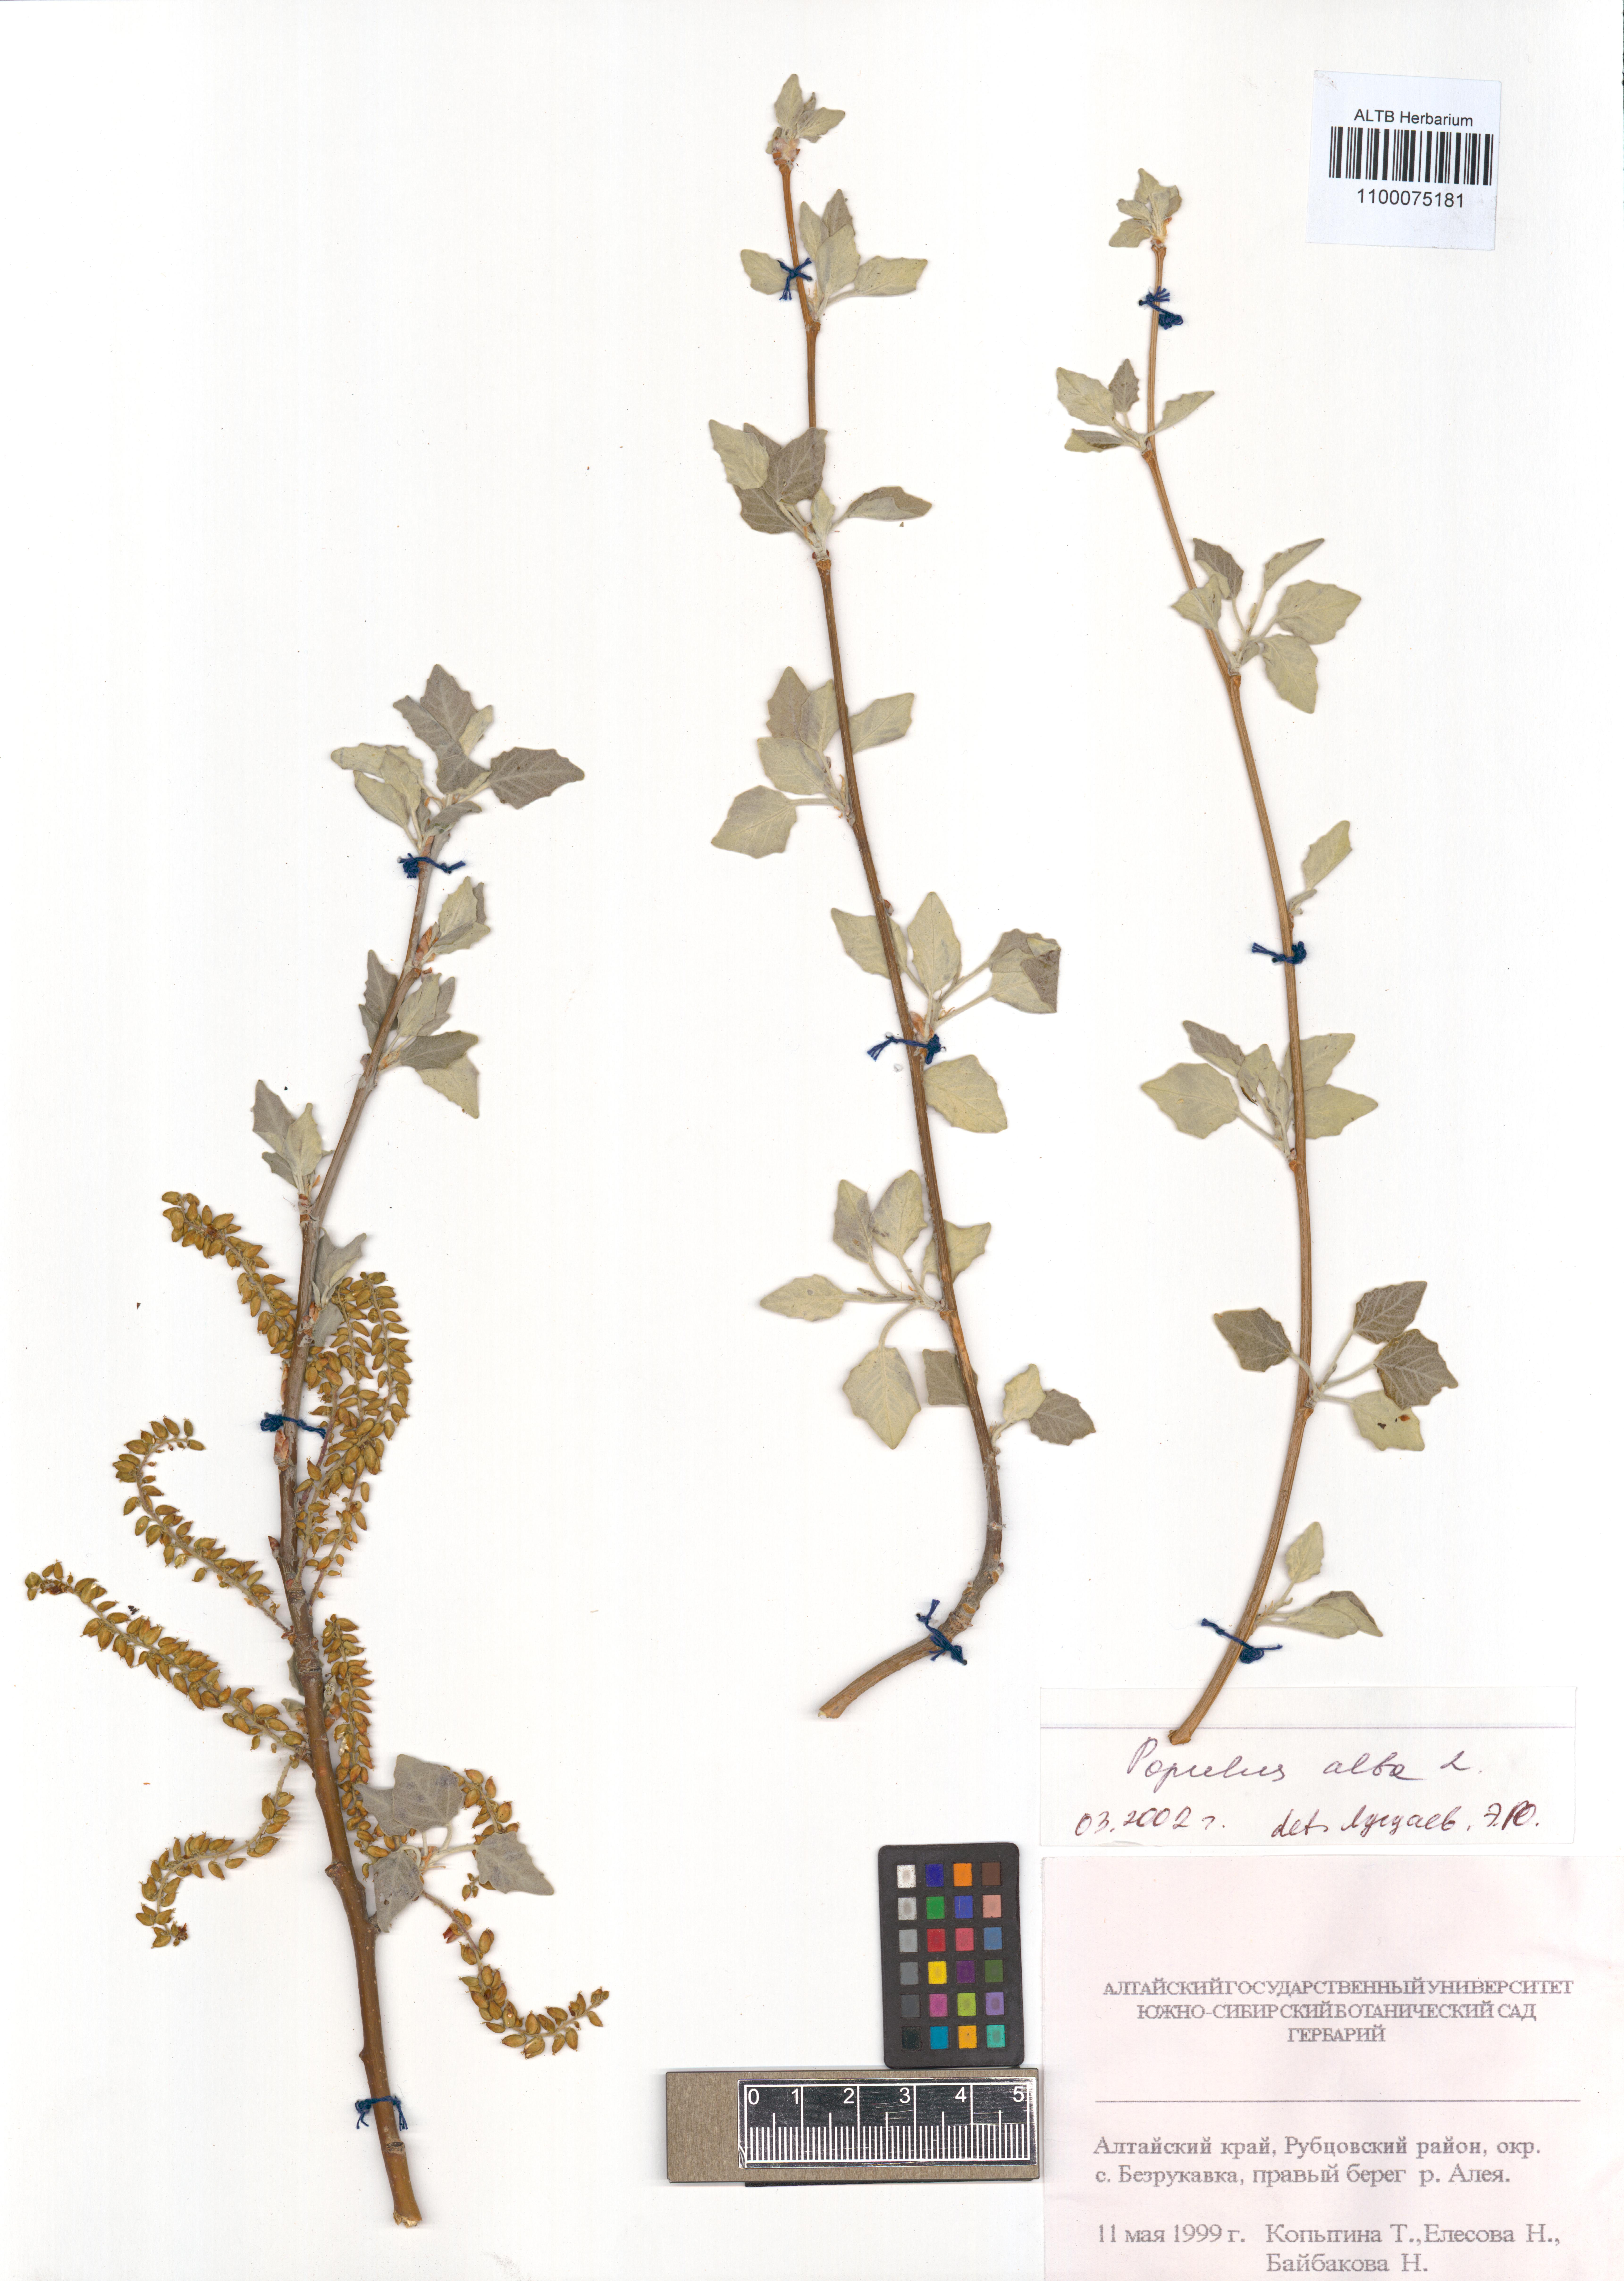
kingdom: Plantae
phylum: Tracheophyta
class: Magnoliopsida
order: Malpighiales
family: Salicaceae
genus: Populus
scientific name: Populus alba
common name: White poplar
